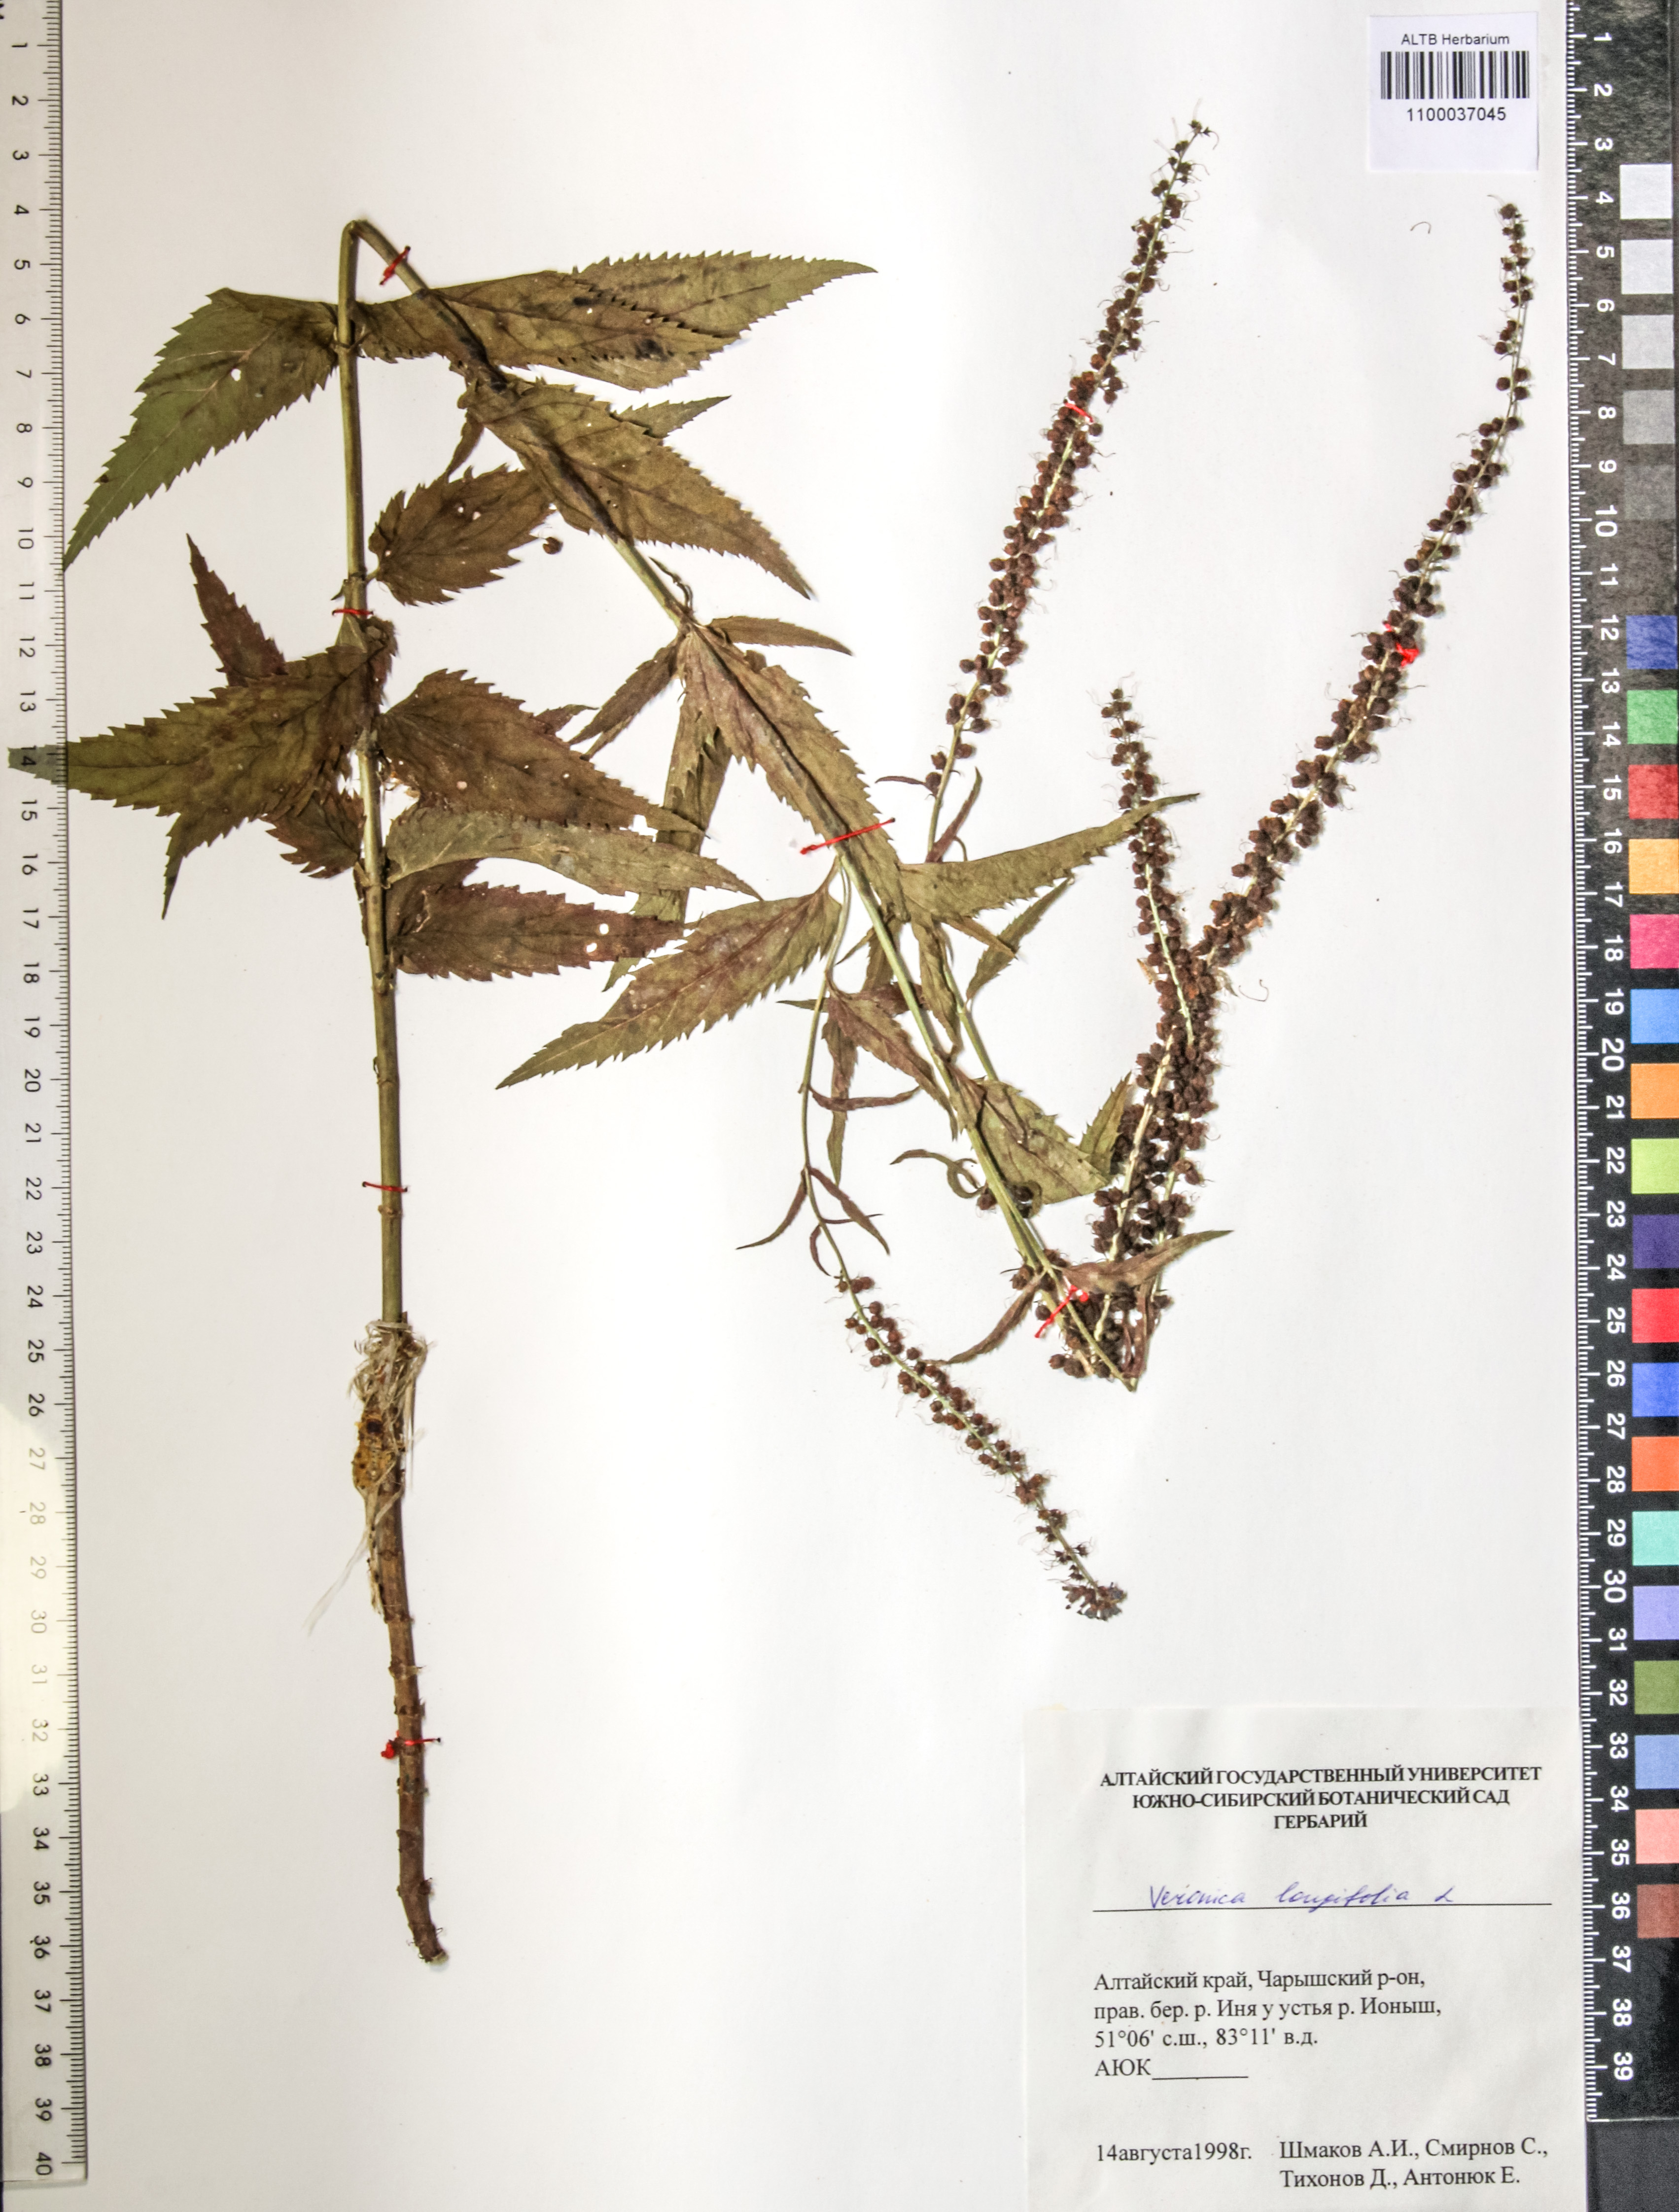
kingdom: Plantae
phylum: Tracheophyta
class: Magnoliopsida
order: Lamiales
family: Plantaginaceae
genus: Veronica
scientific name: Veronica longifolia
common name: Garden speedwell
